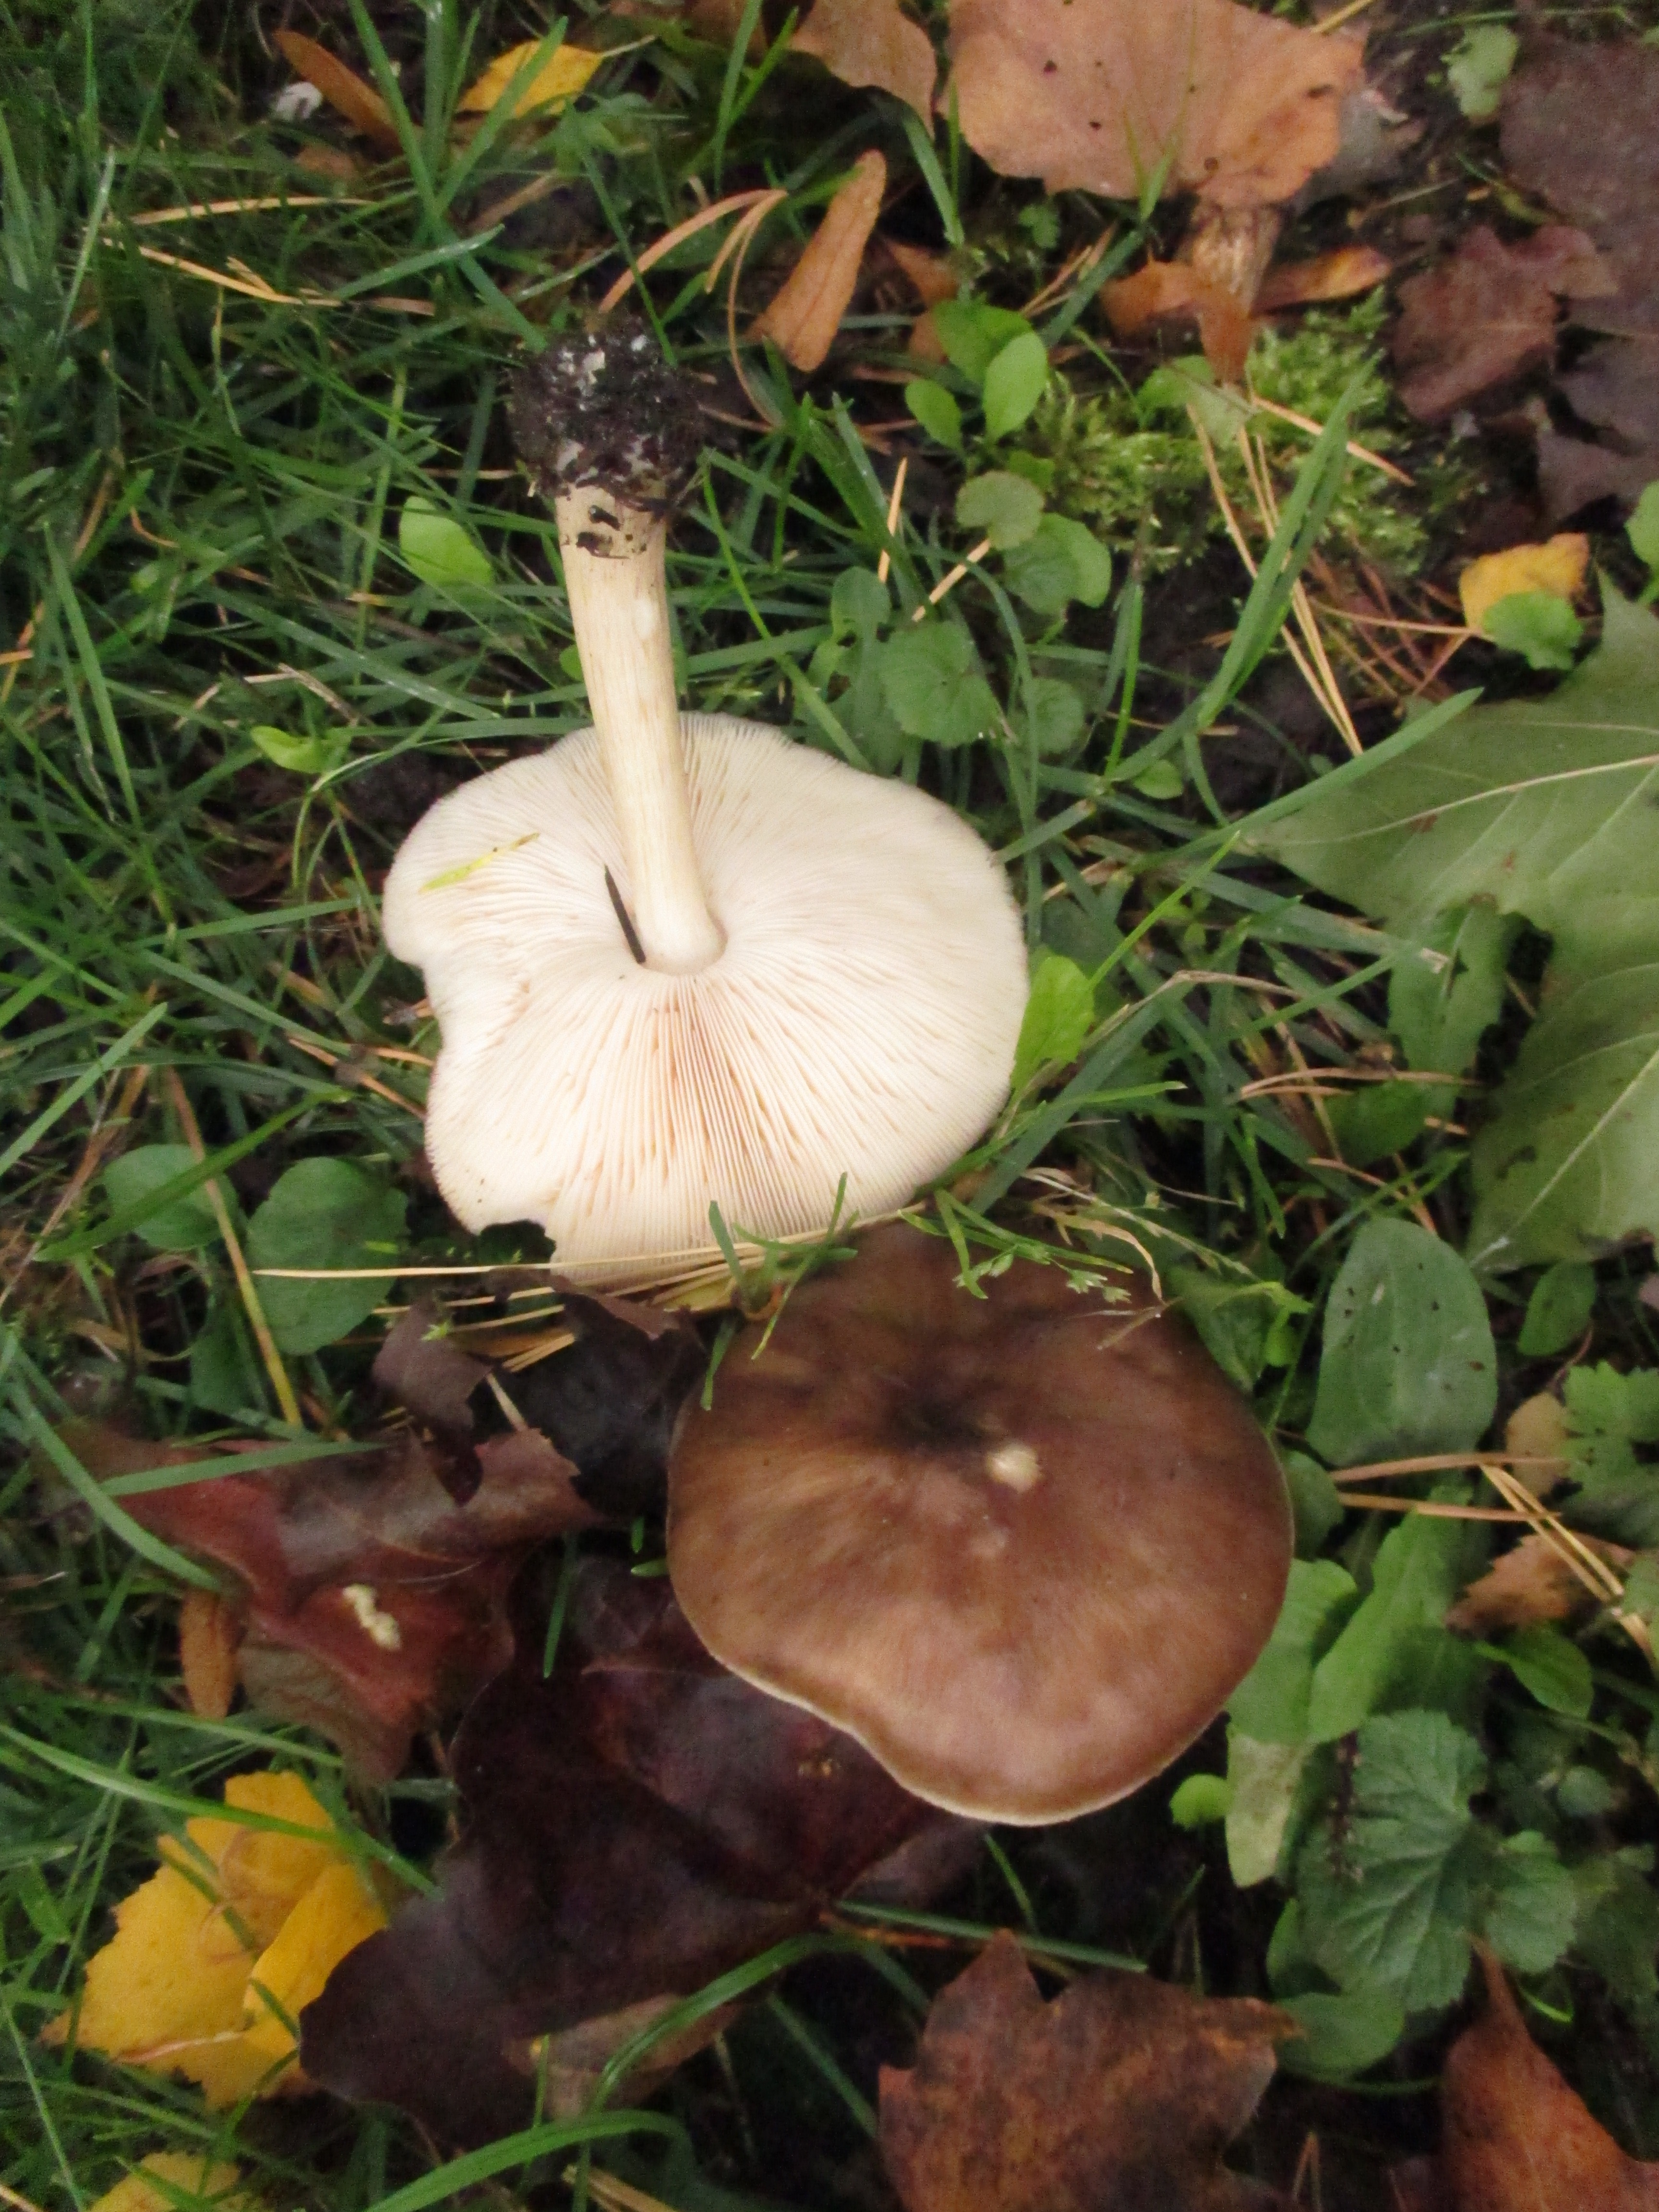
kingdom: Fungi
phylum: Basidiomycota
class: Agaricomycetes
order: Agaricales
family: Pluteaceae
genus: Pluteus
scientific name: Pluteus cervinus
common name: Deer shield
